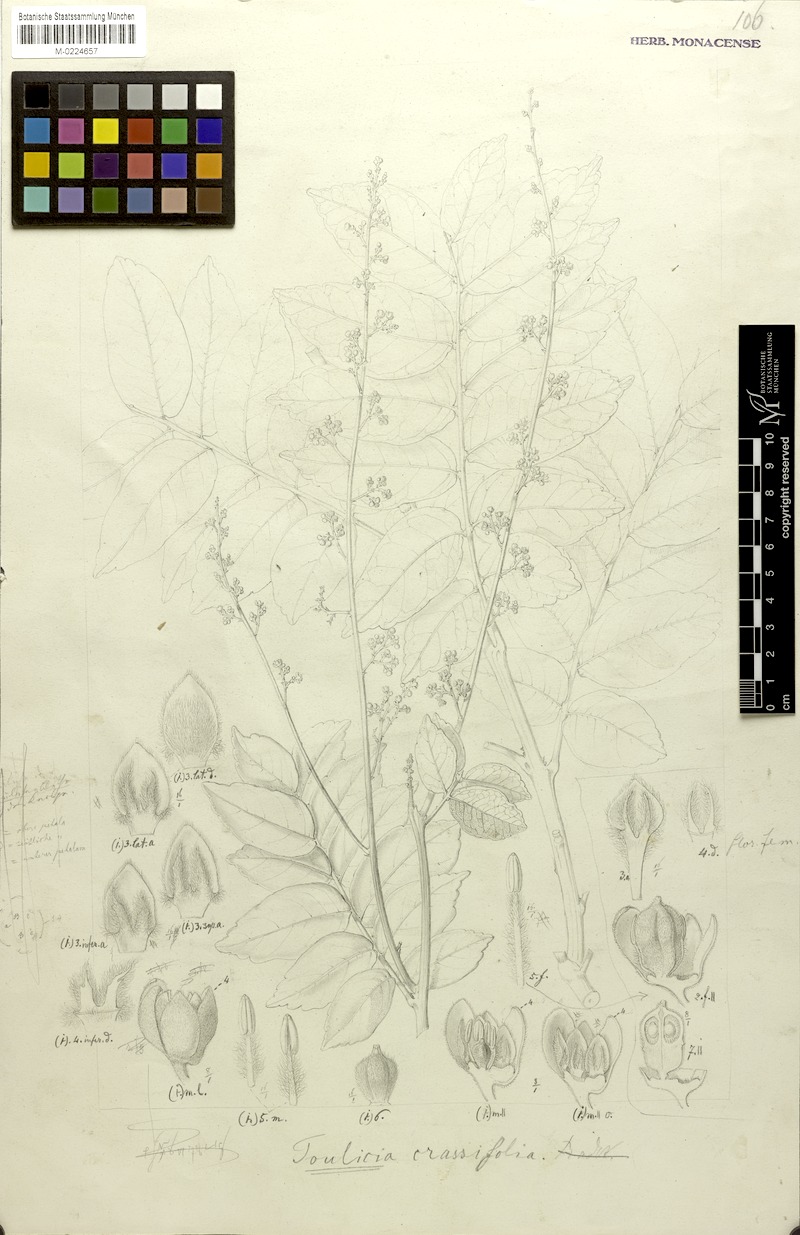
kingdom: Plantae
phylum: Tracheophyta
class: Magnoliopsida
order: Sapindales
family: Sapindaceae
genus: Toulicia
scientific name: Toulicia crassifolia
